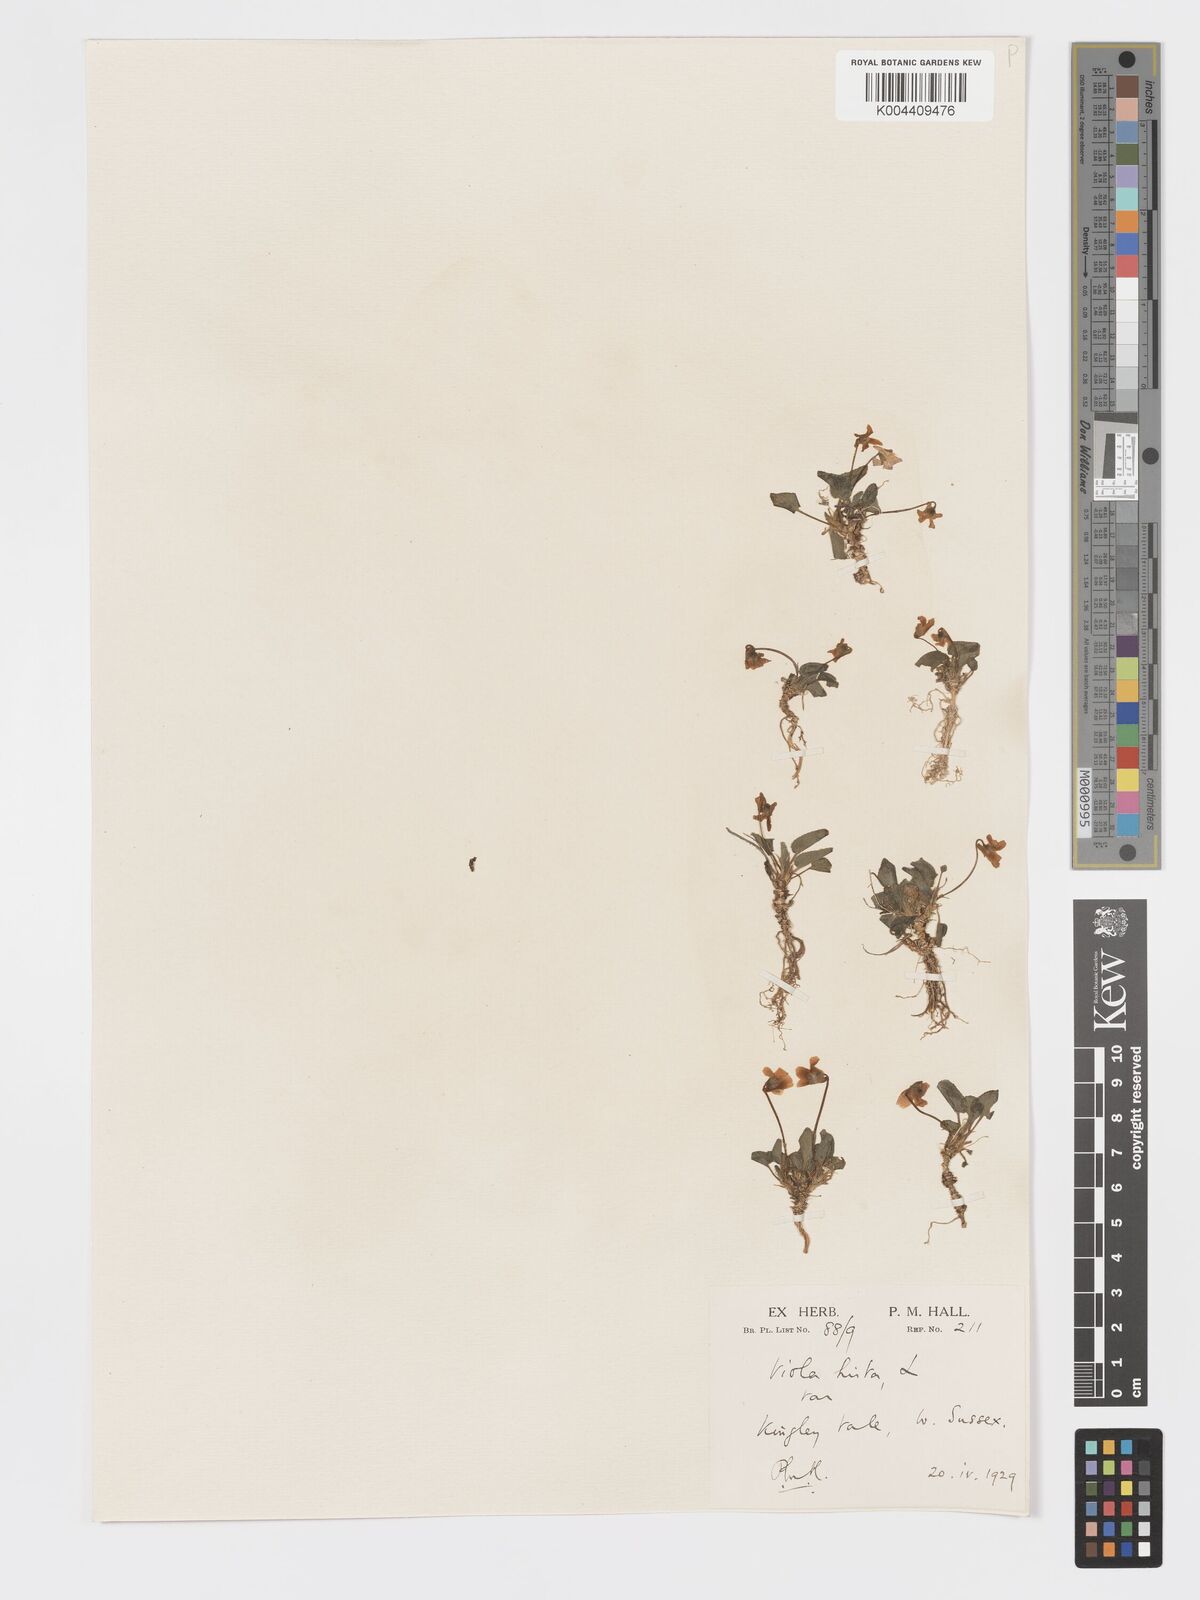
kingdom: Plantae
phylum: Tracheophyta
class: Magnoliopsida
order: Malpighiales
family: Violaceae
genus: Viola
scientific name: Viola
